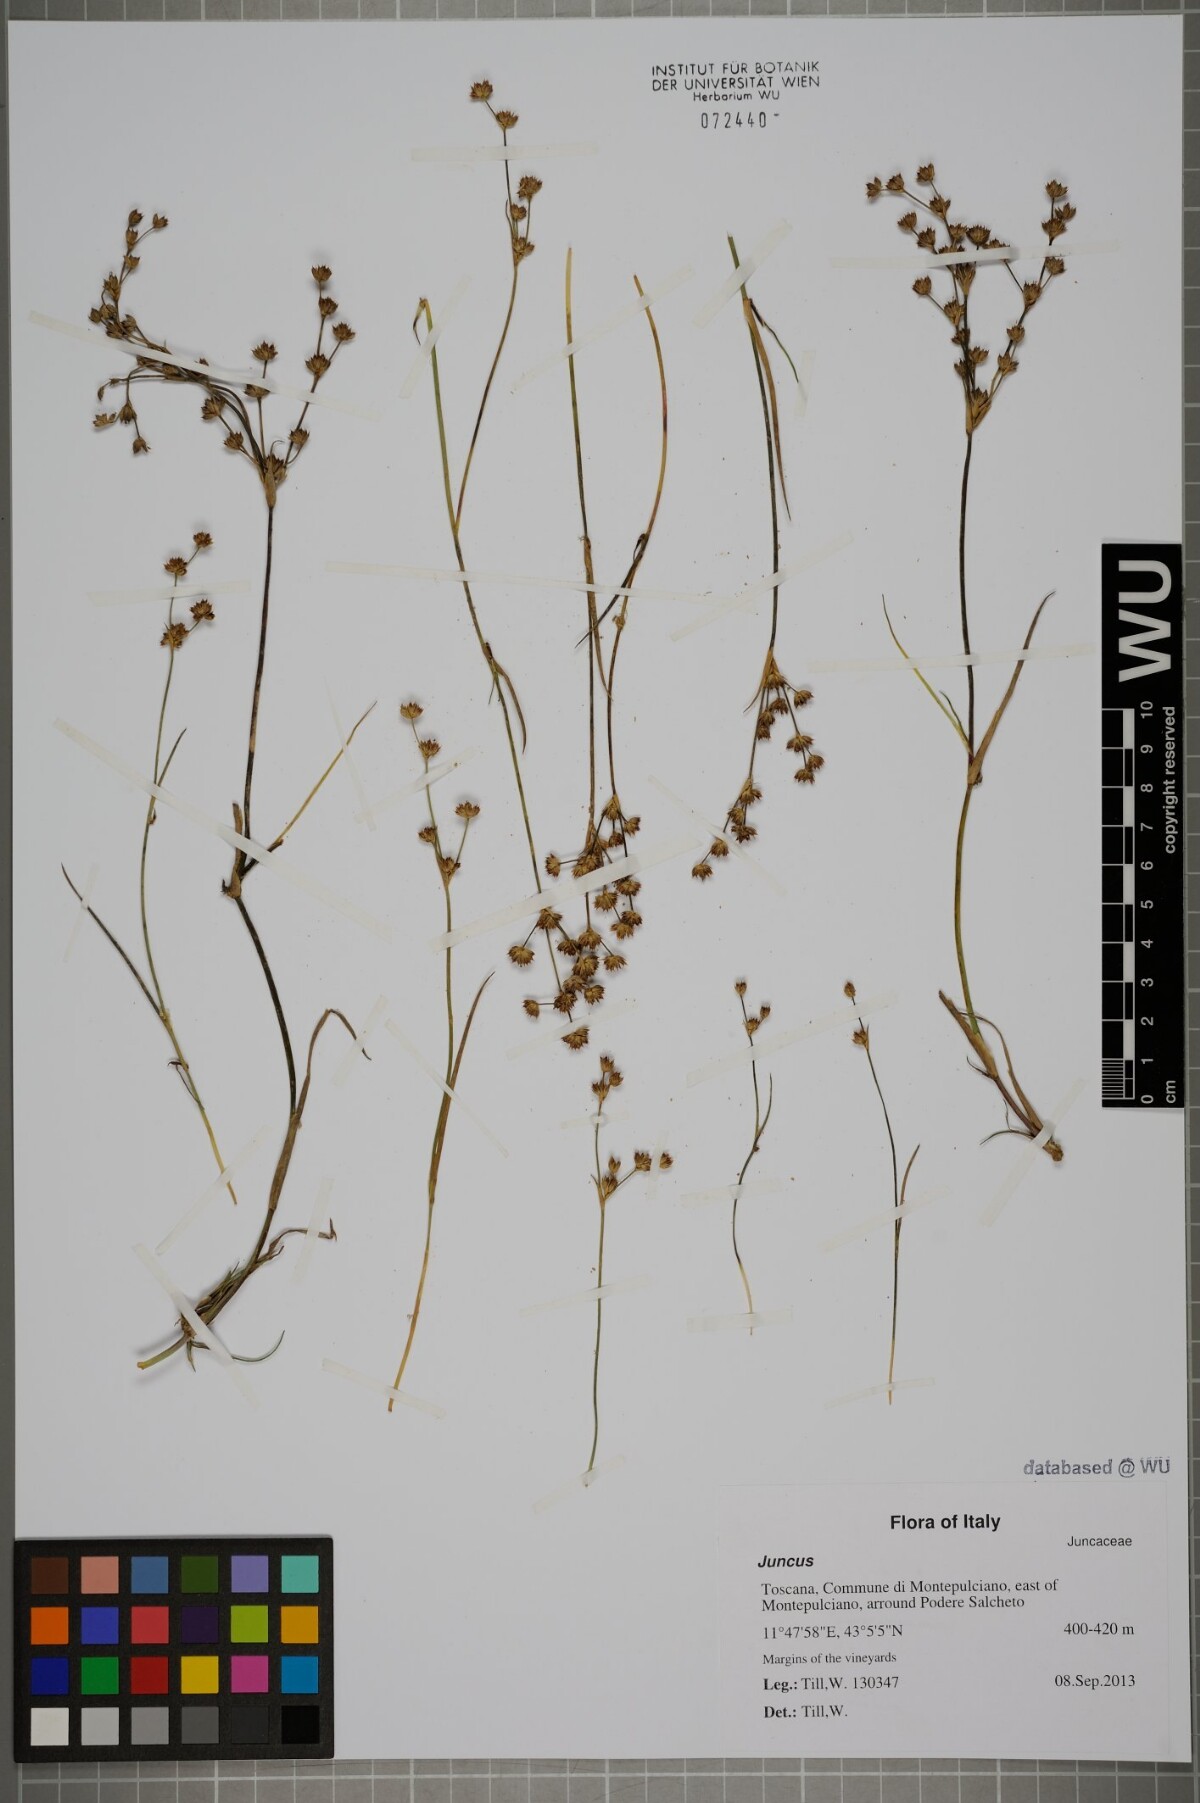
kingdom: Plantae
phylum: Tracheophyta
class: Liliopsida
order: Poales
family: Juncaceae
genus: Juncus
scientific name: Juncus articulatus
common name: Jointed rush
